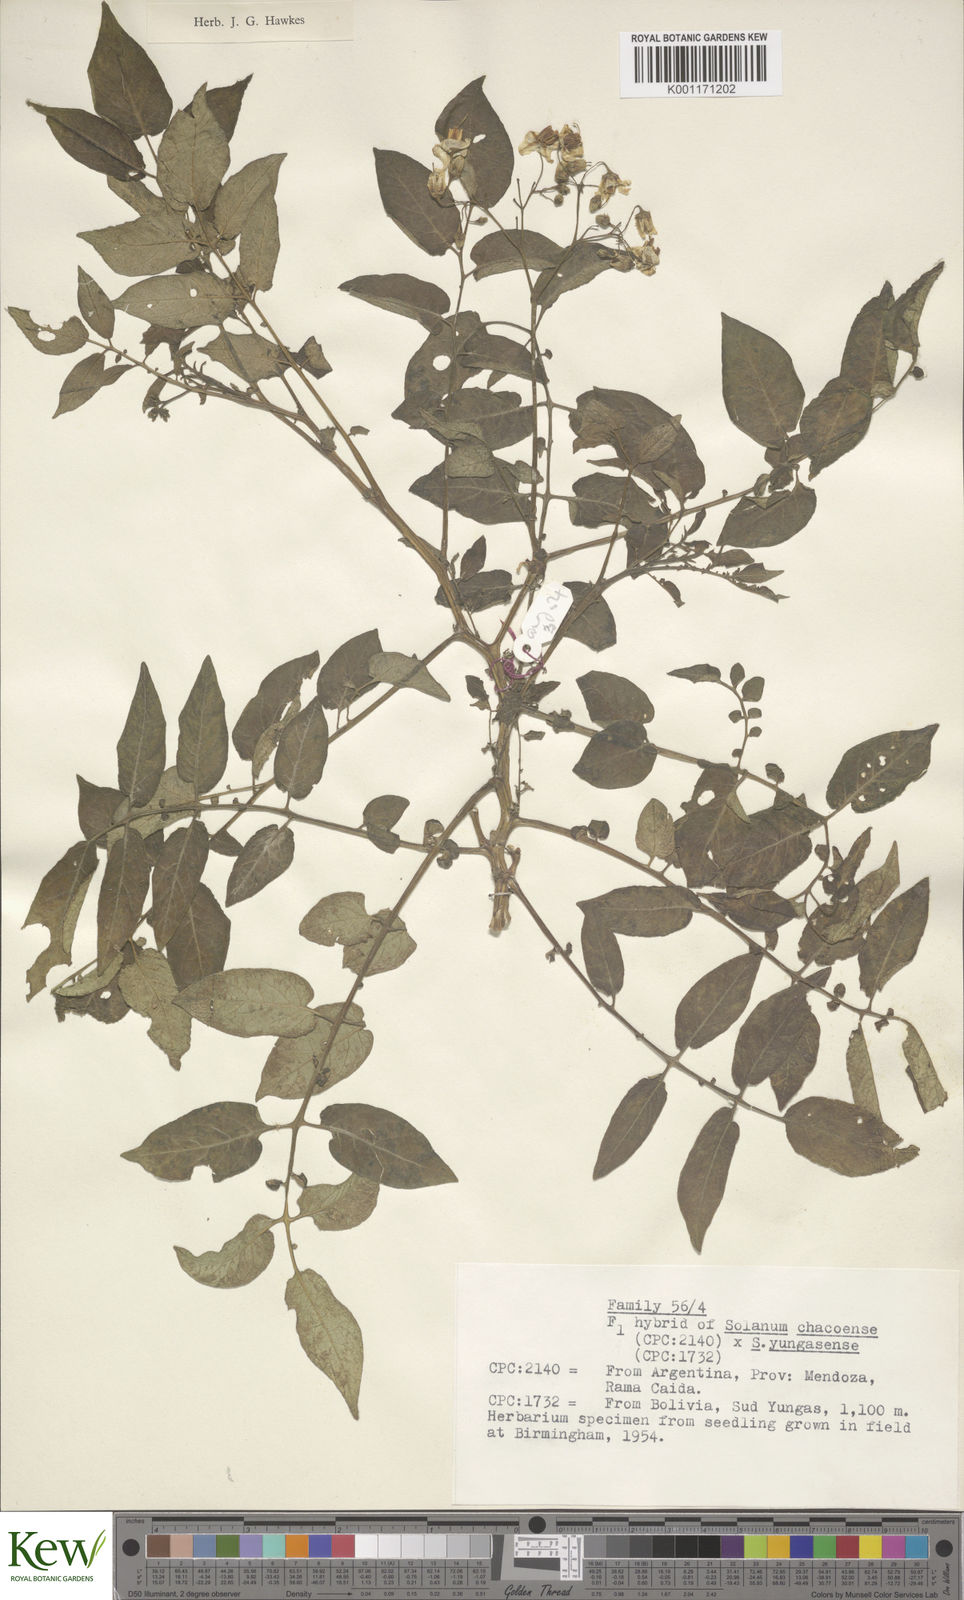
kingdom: Plantae
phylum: Tracheophyta
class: Magnoliopsida
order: Solanales
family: Solanaceae
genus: Solanum
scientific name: Solanum chacoense
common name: Chaco potato
